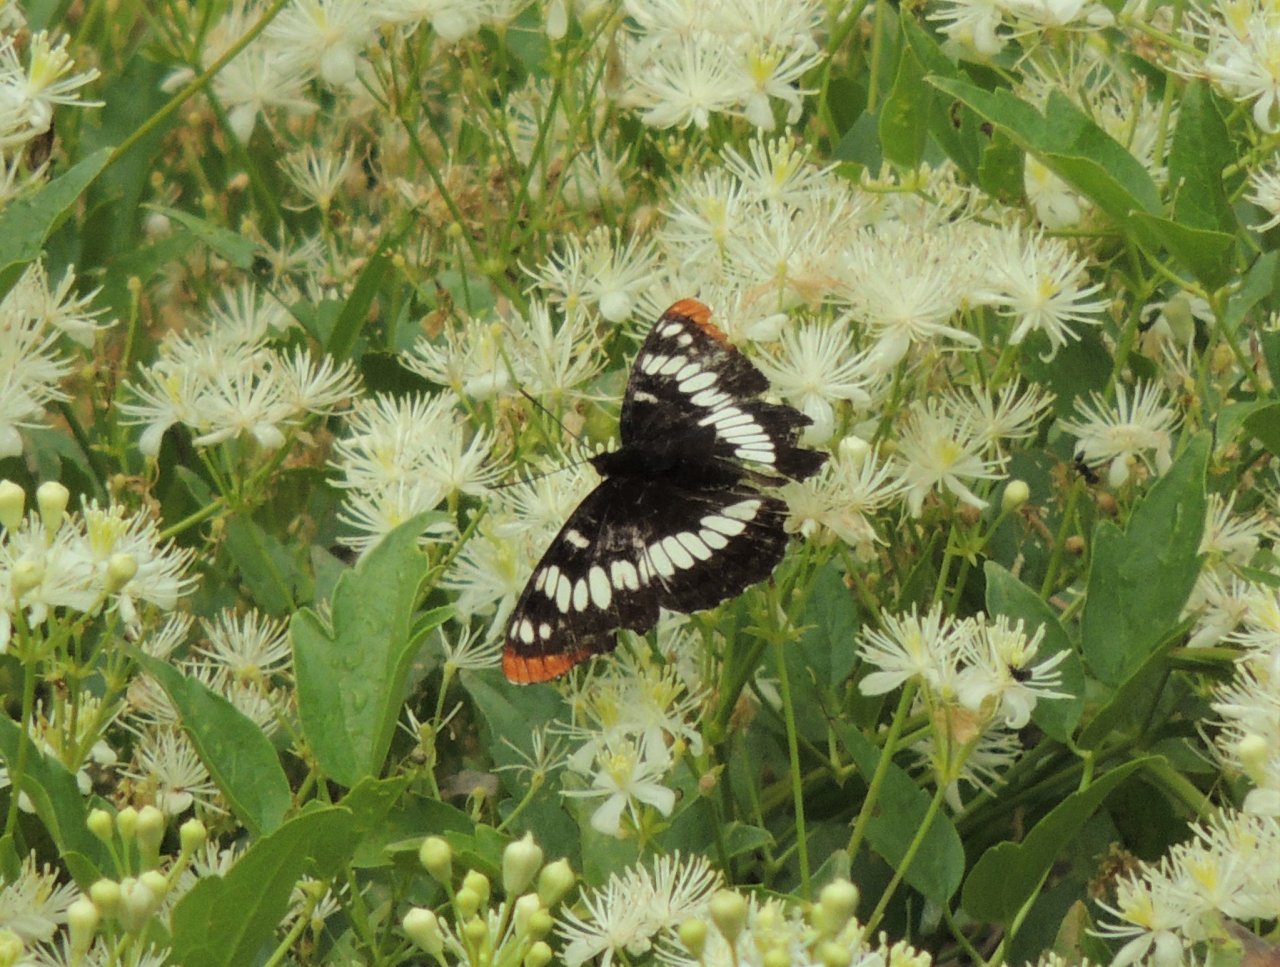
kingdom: Animalia
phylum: Arthropoda
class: Insecta
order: Lepidoptera
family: Nymphalidae
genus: Limenitis
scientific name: Limenitis lorquini
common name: Lorquin's Admiral
